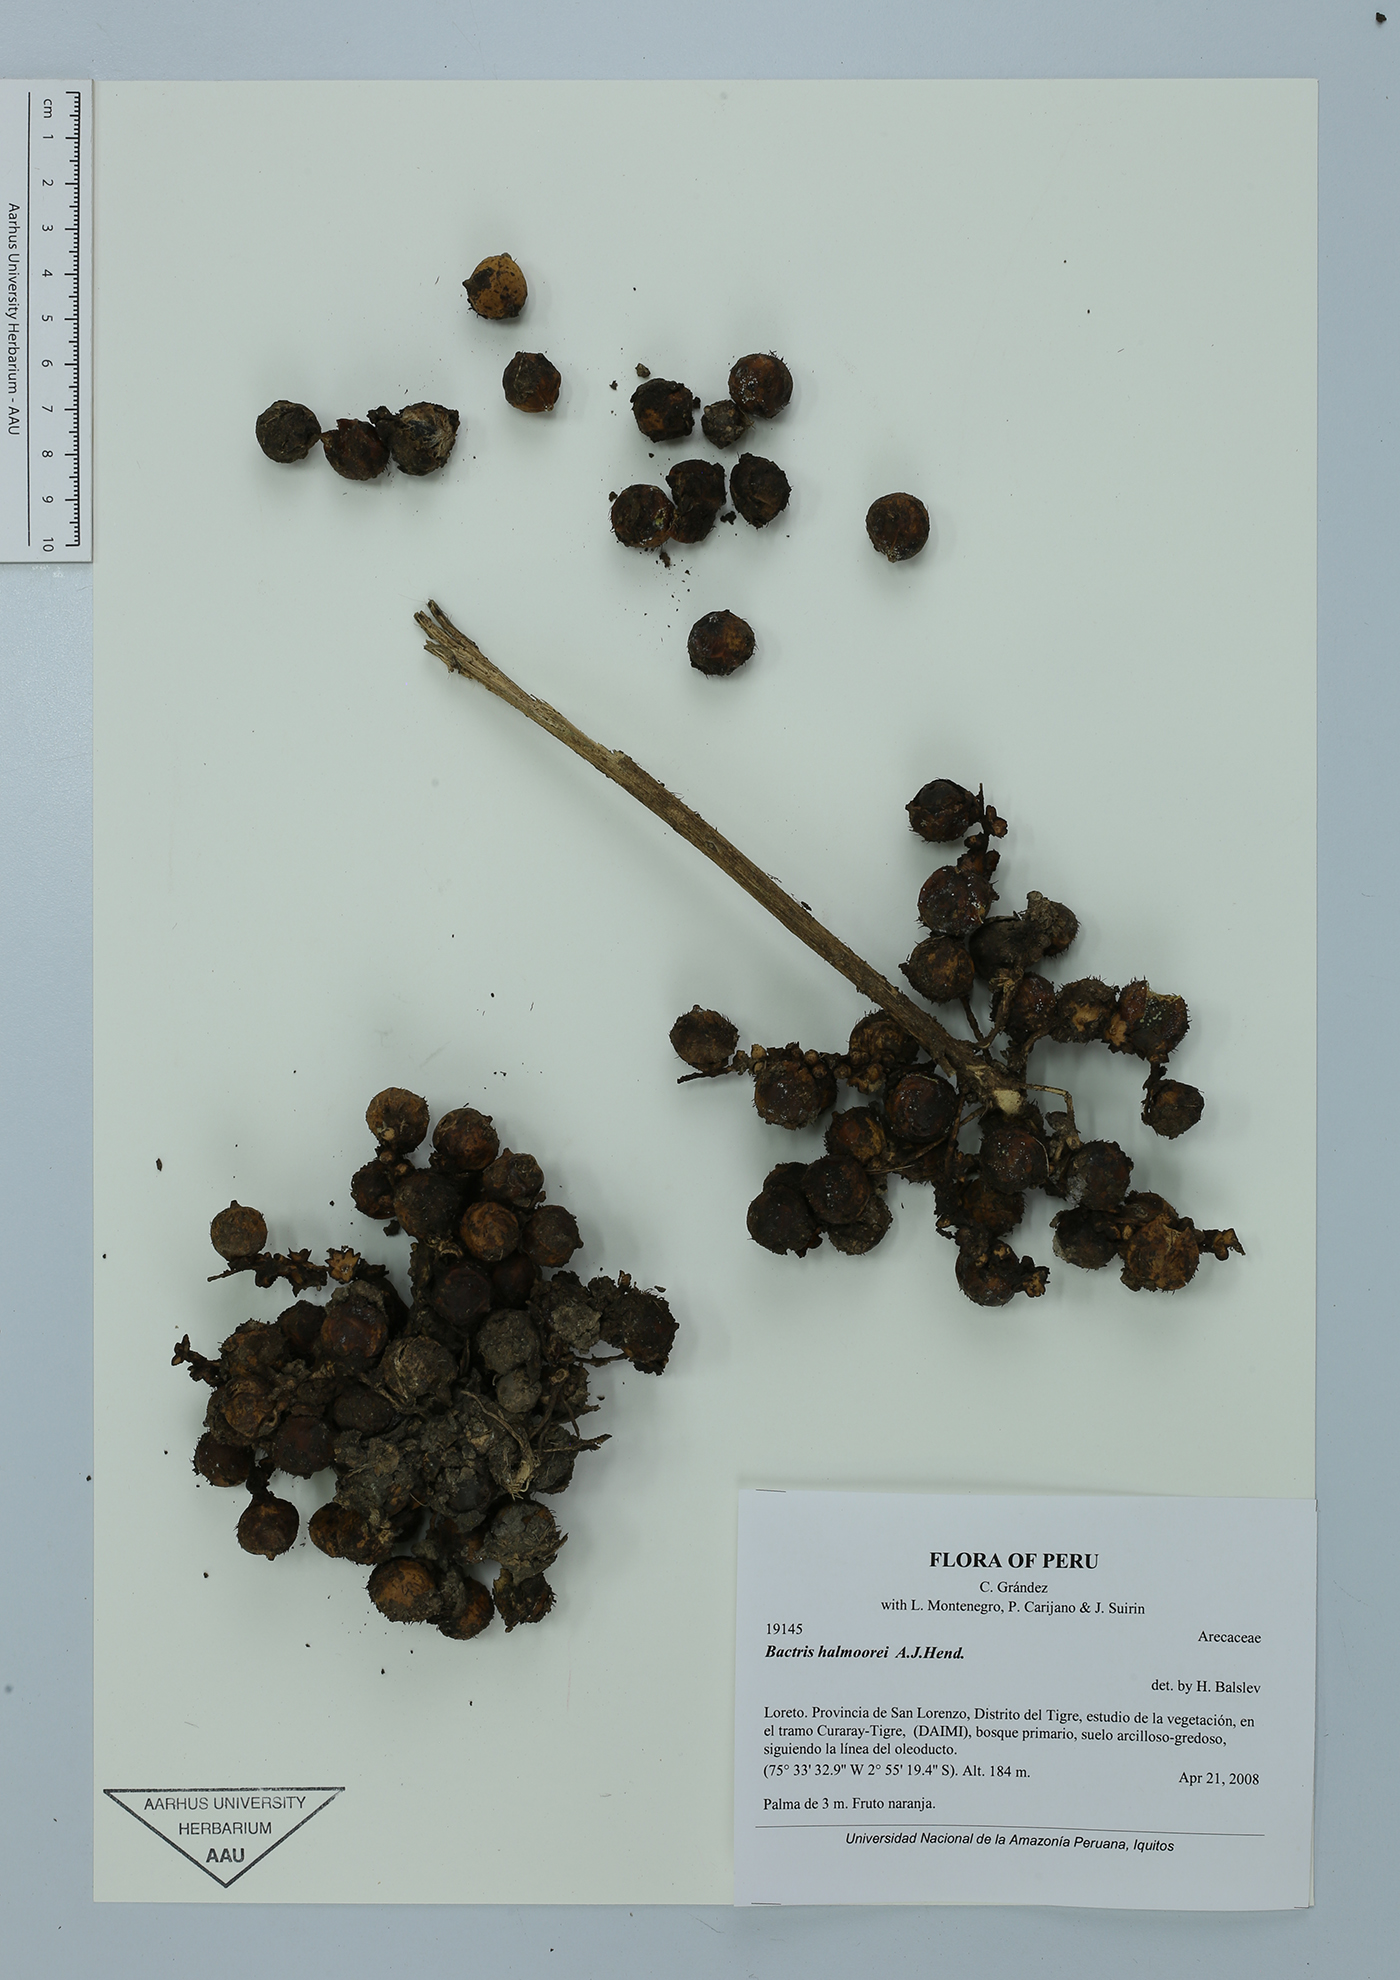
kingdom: Plantae
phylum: Tracheophyta
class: Liliopsida
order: Arecales
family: Arecaceae
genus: Bactris
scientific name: Bactris halmoorei
